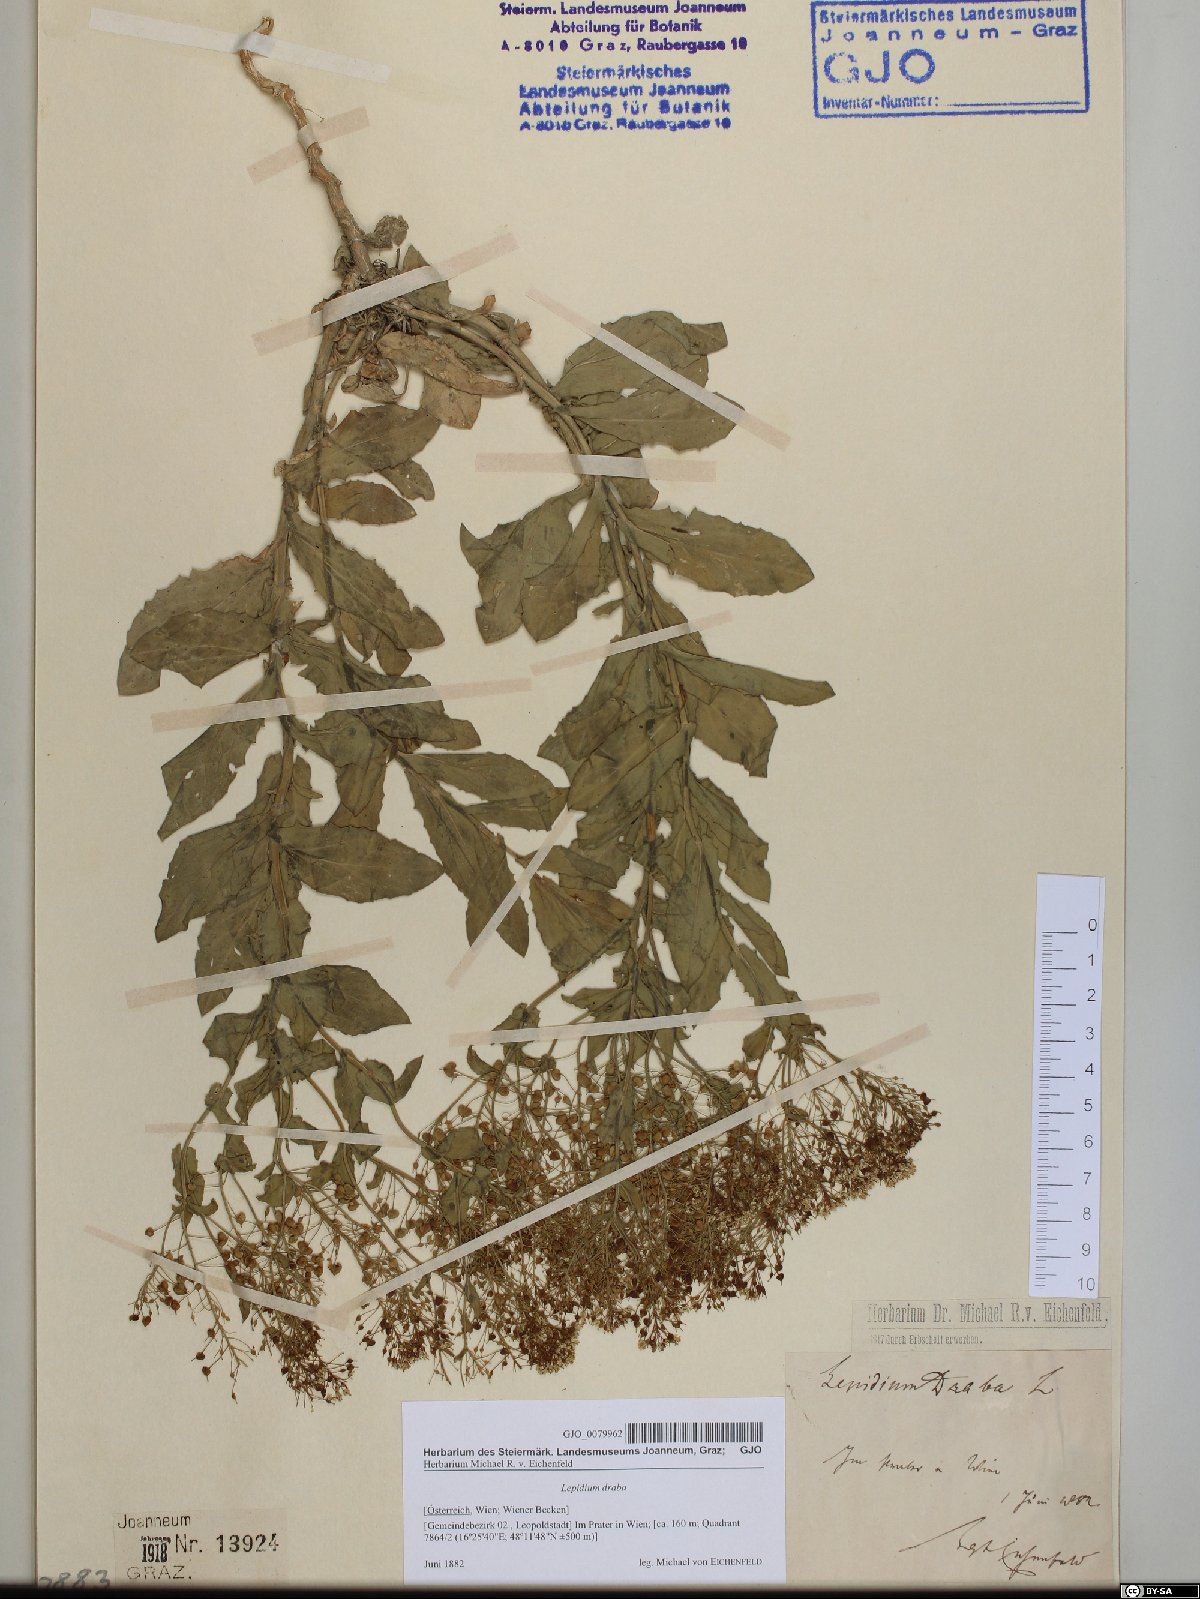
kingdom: Plantae
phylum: Tracheophyta
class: Magnoliopsida
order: Brassicales
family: Brassicaceae
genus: Lepidium
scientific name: Lepidium draba
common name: Hoary cress
